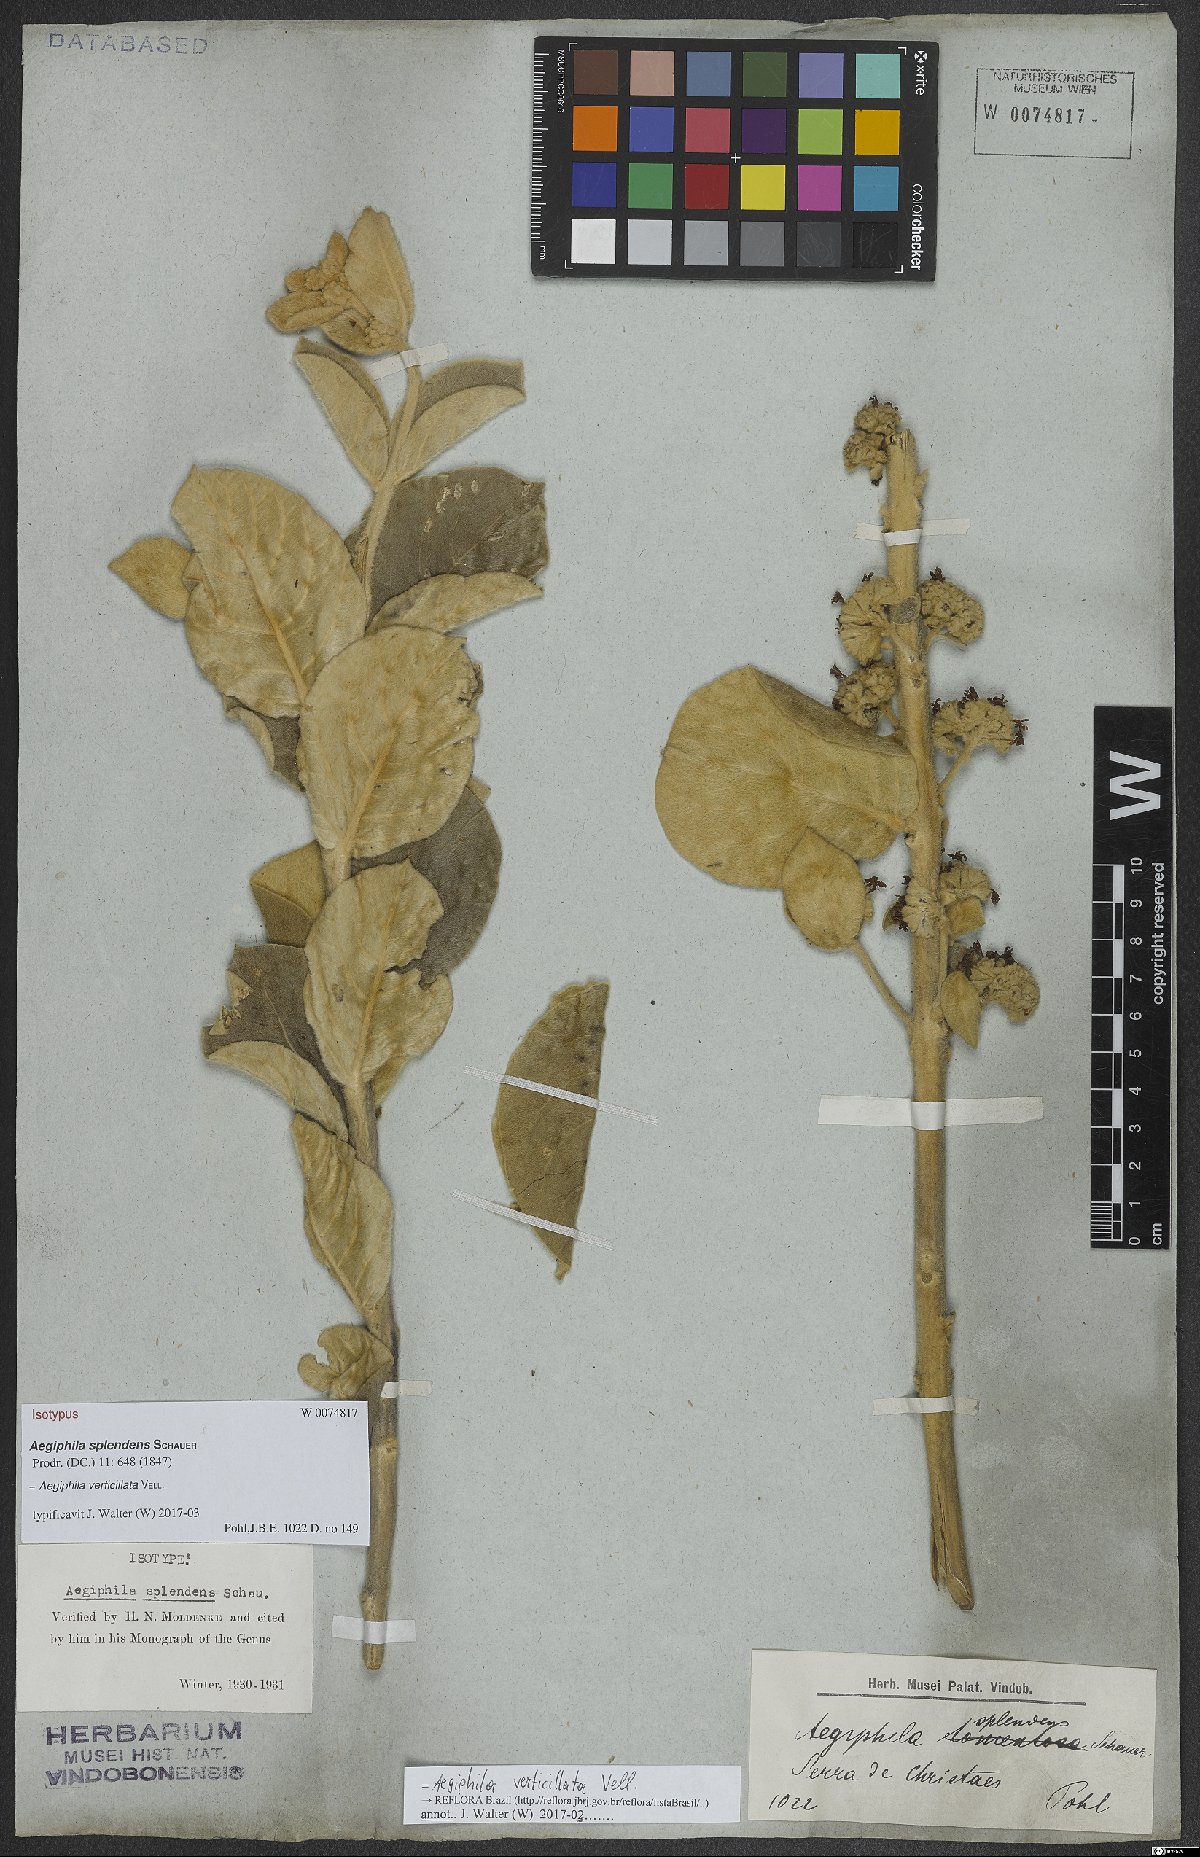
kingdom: Plantae
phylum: Tracheophyta
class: Magnoliopsida
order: Lamiales
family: Lamiaceae
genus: Aegiphila
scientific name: Aegiphila verticillata
